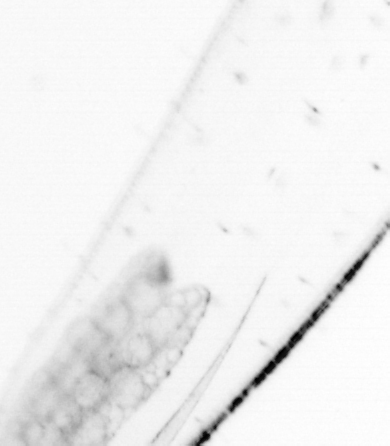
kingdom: Animalia
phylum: Chaetognatha
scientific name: Chaetognatha
